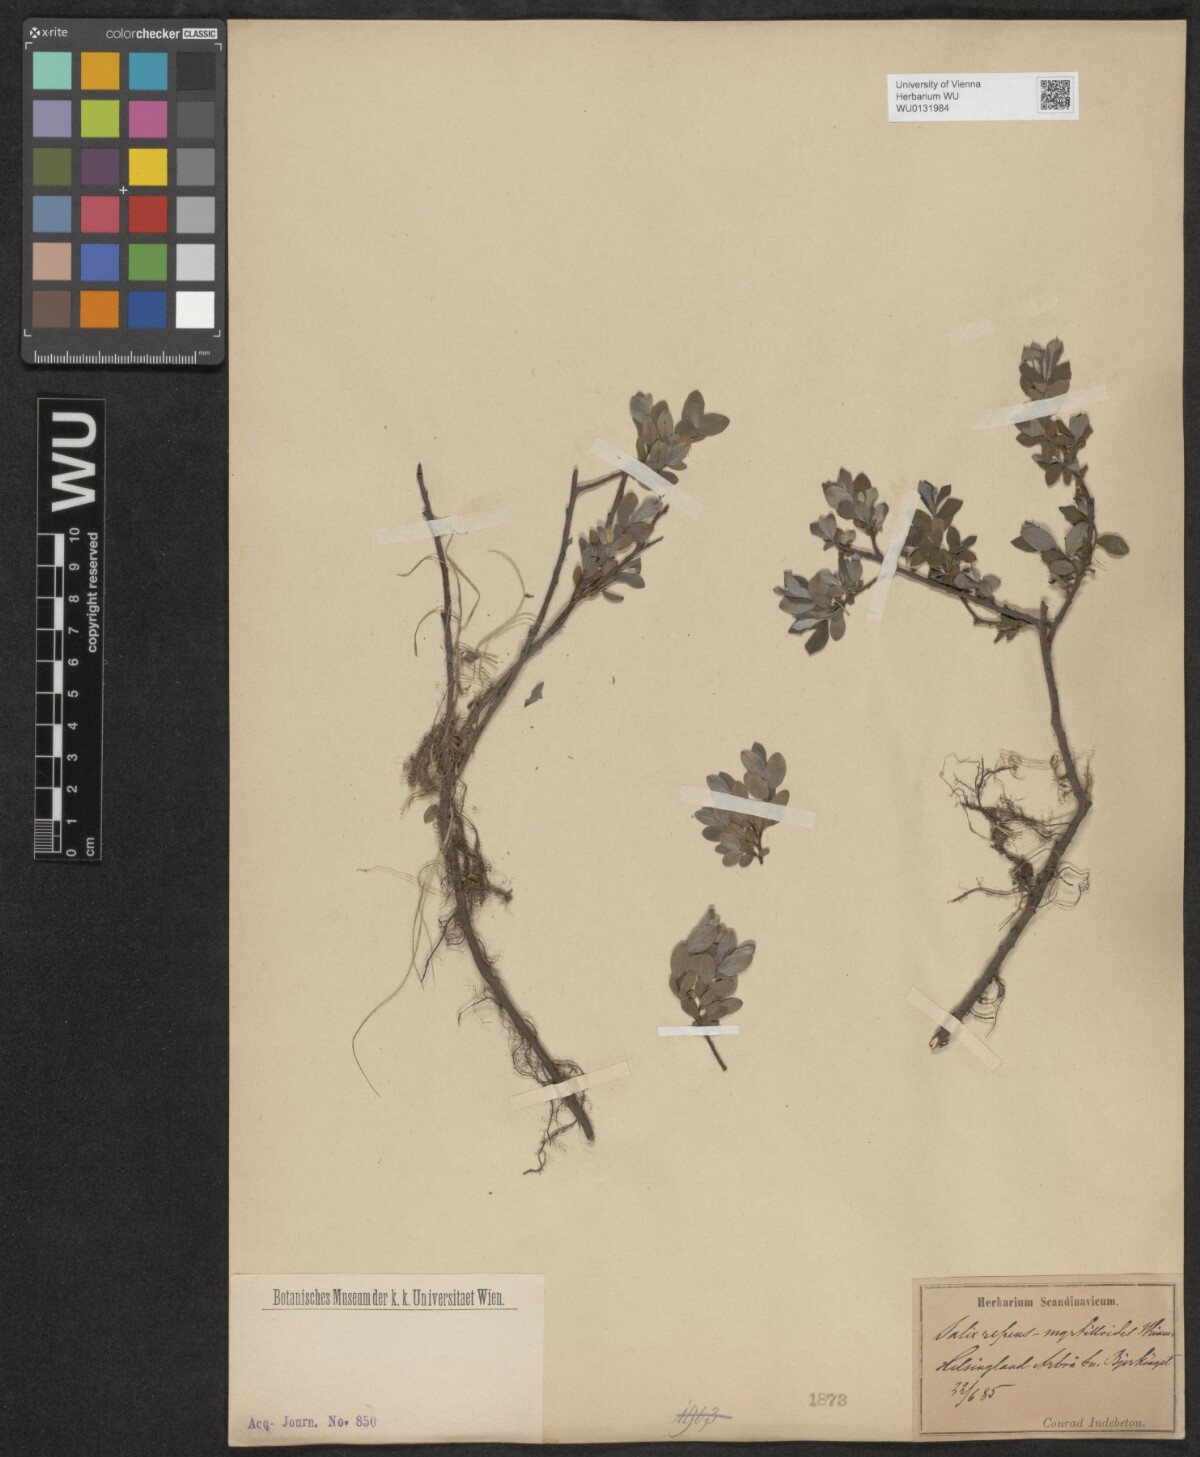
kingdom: Plantae
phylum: Tracheophyta
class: Magnoliopsida
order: Malpighiales
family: Salicaceae
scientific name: Salicaceae
